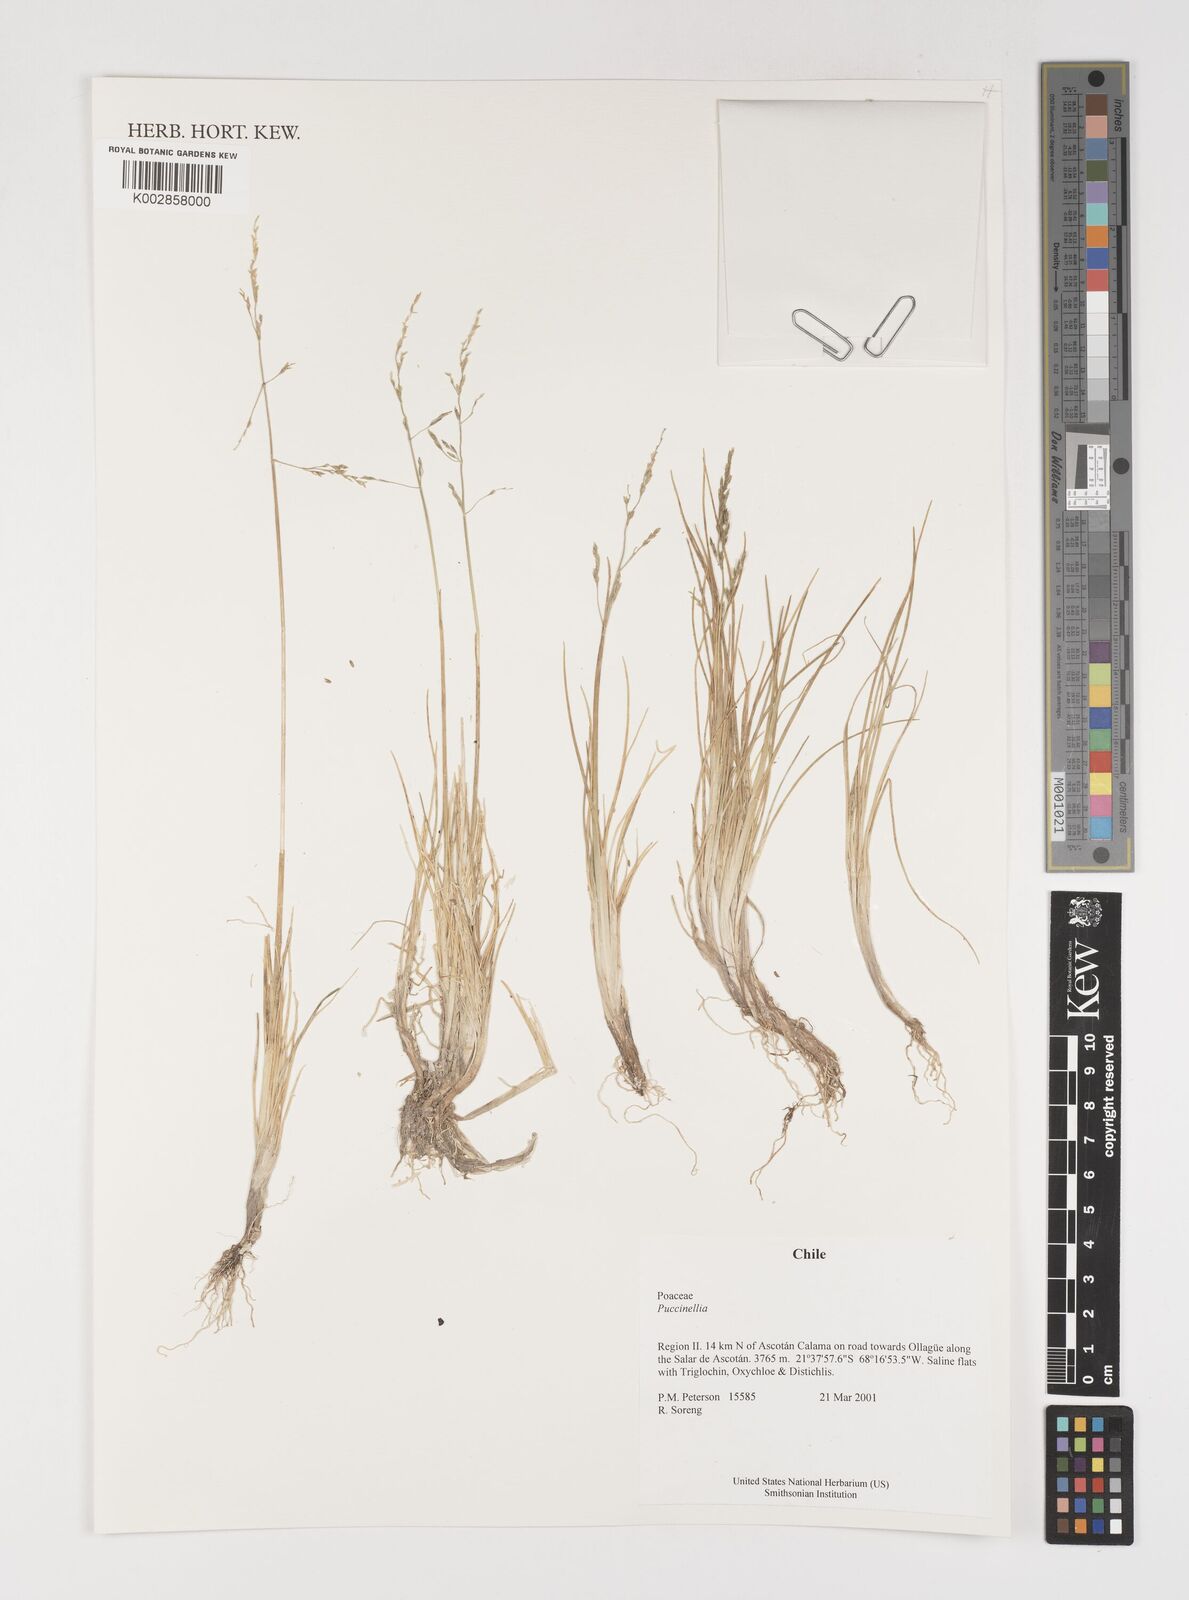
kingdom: Plantae
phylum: Tracheophyta
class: Liliopsida
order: Poales
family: Poaceae
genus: Puccinellia
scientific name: Puccinellia
